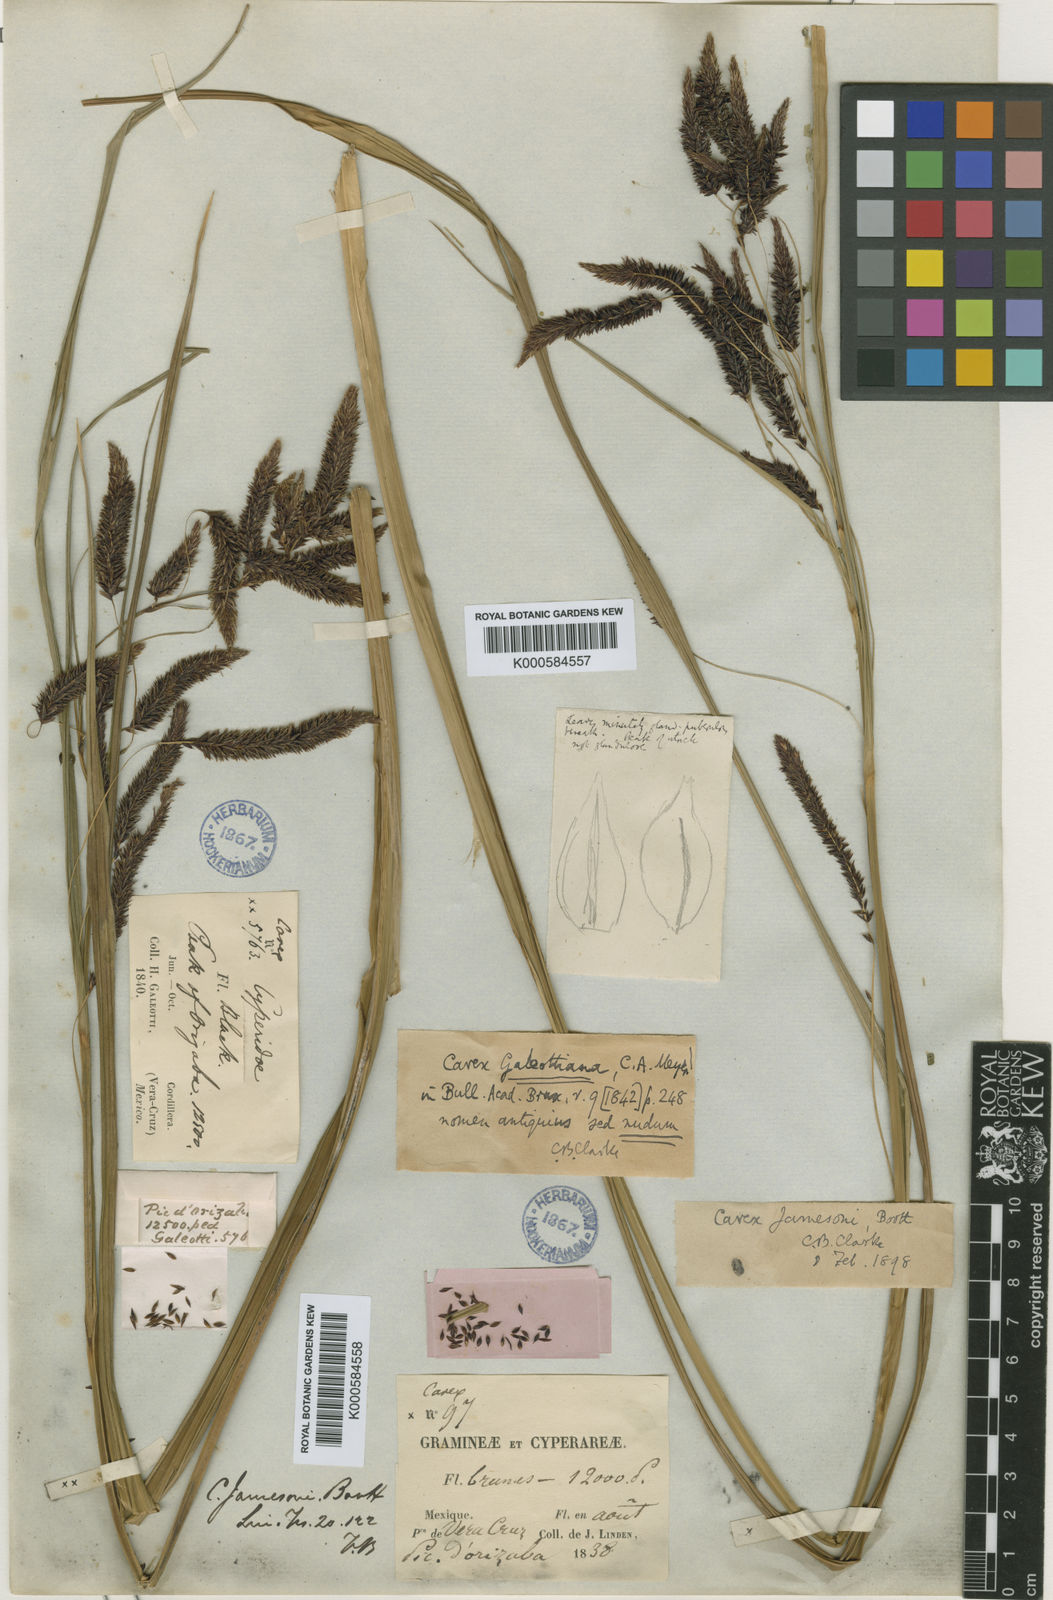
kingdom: Plantae
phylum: Tracheophyta
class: Liliopsida
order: Poales
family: Cyperaceae
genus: Carex
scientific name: Carex cortesii
